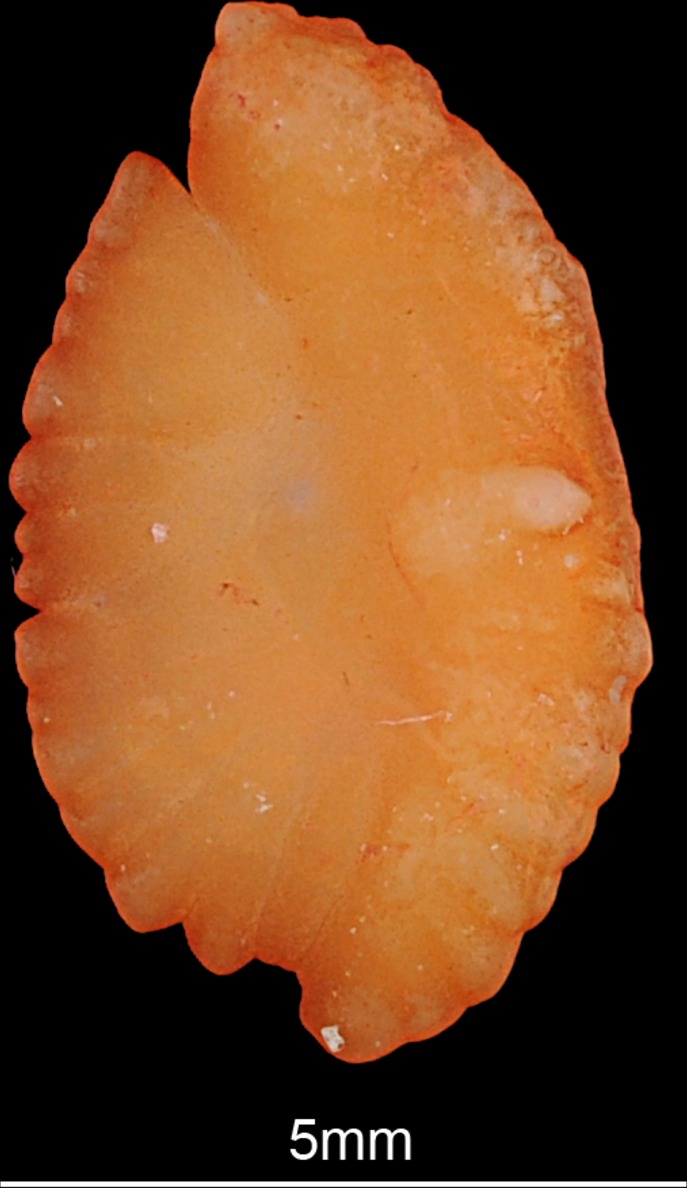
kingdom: Animalia
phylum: Chordata
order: Perciformes
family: Percidae
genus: Gymnocephalus
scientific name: Gymnocephalus cernua
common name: Ruffe
